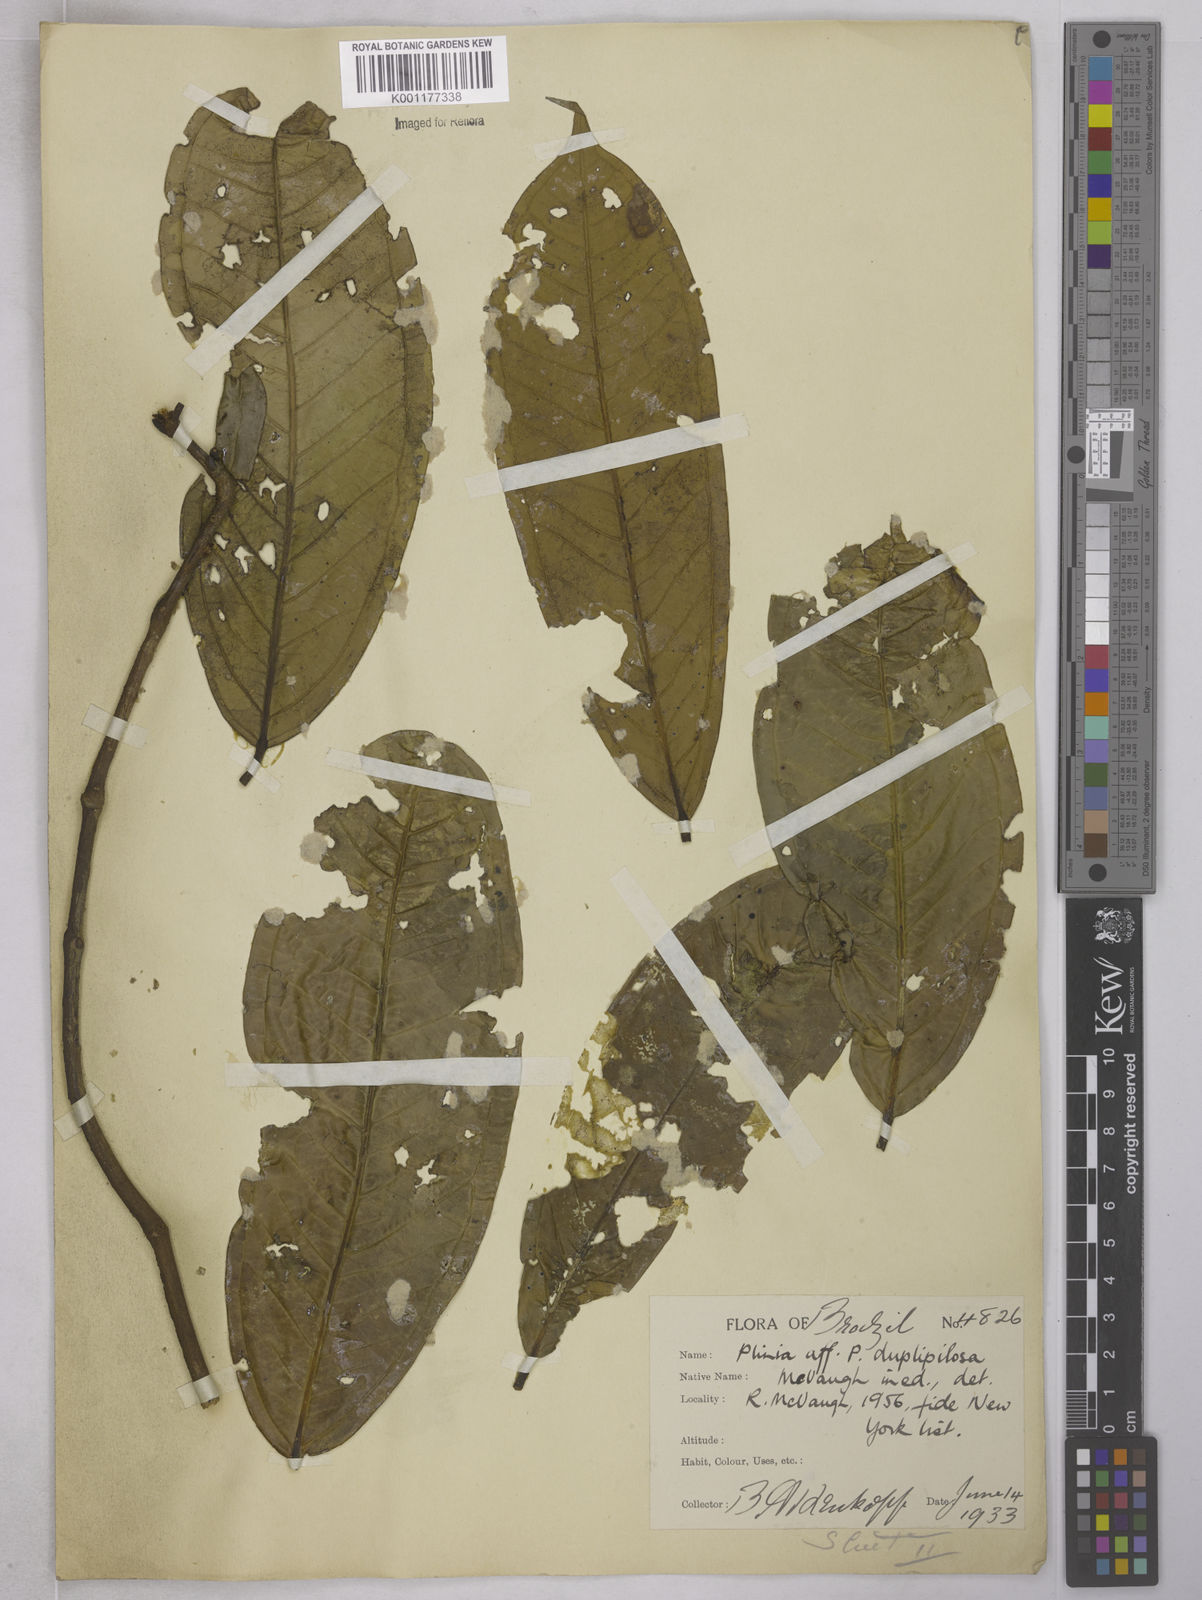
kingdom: Plantae
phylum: Tracheophyta
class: Magnoliopsida
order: Myrtales
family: Myrtaceae
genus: Plinia
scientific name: Plinia povedae
